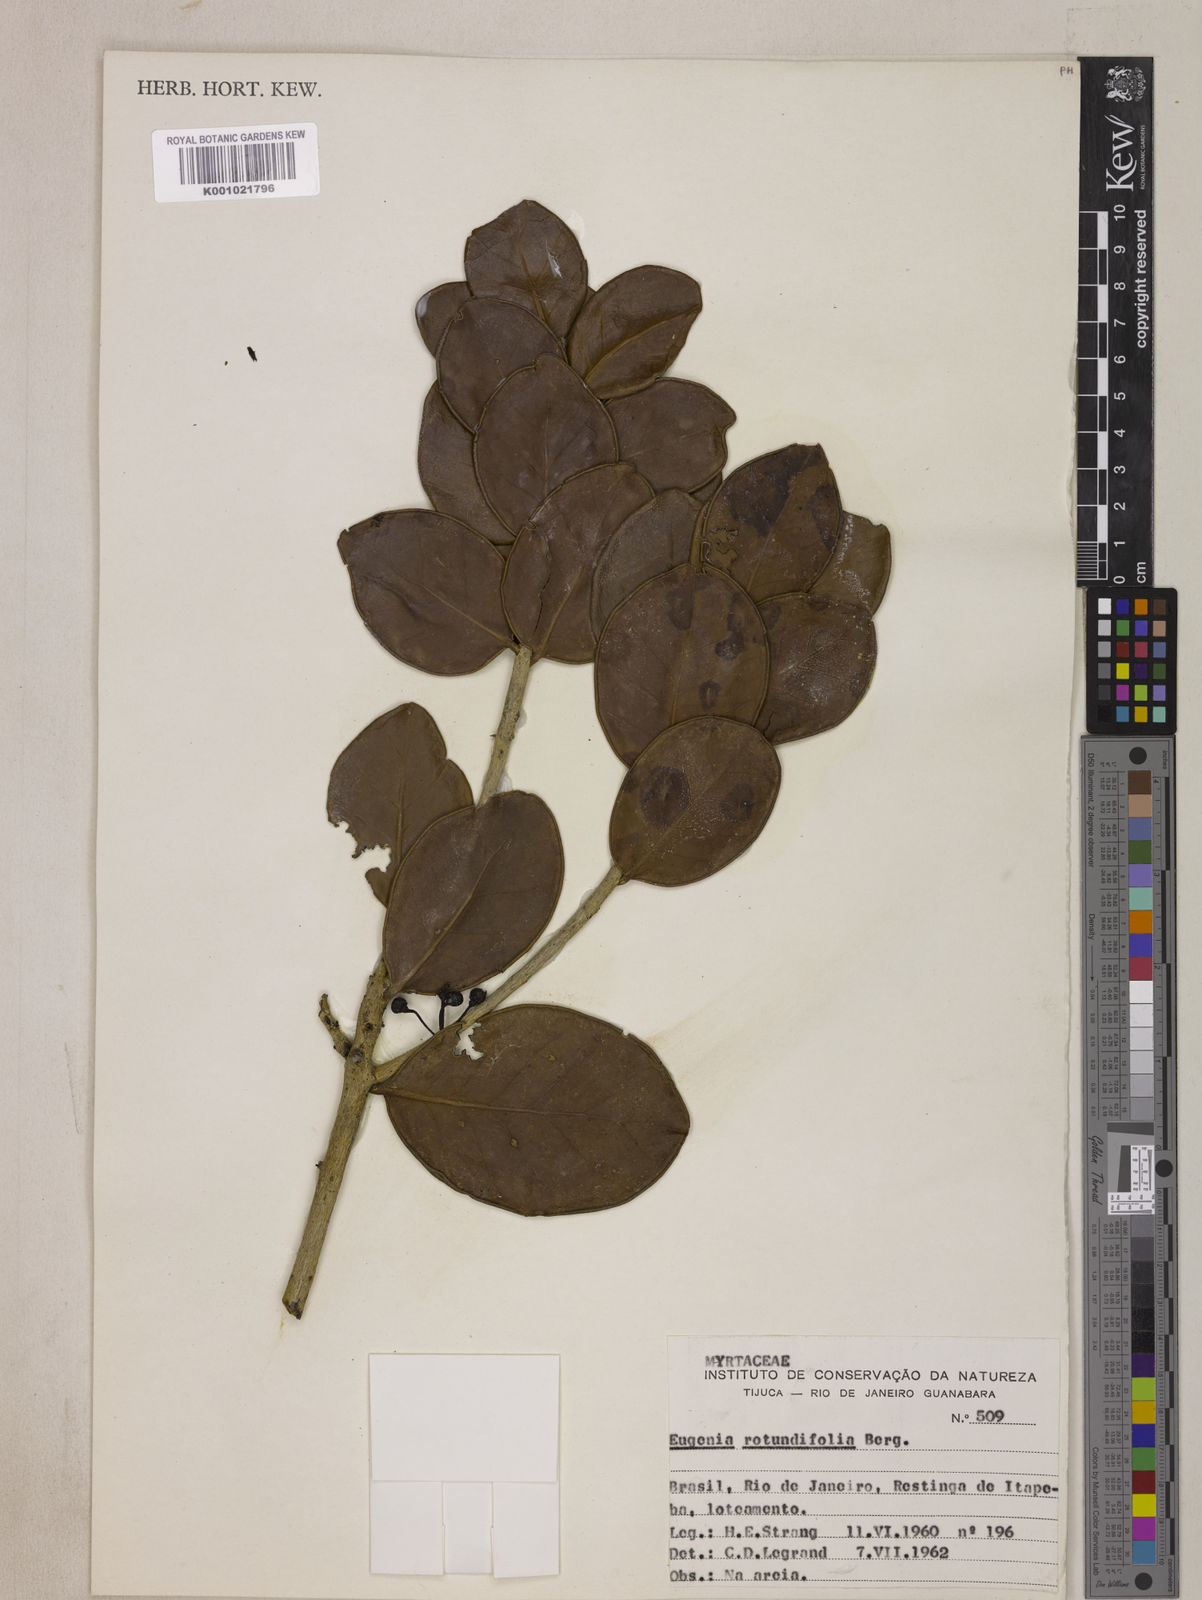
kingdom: Plantae
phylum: Tracheophyta
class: Magnoliopsida
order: Myrtales
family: Myrtaceae
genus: Eugenia
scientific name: Eugenia casarettoana
